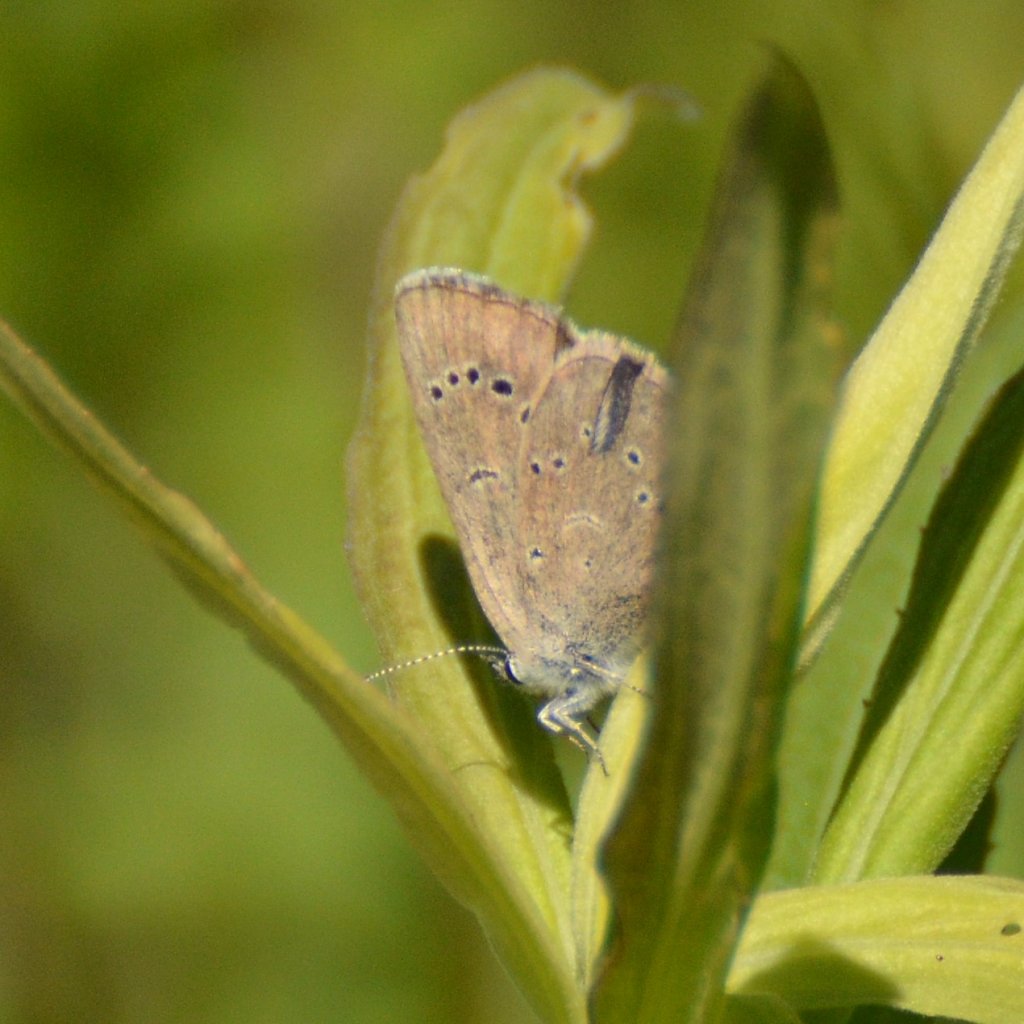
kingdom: Animalia
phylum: Arthropoda
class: Insecta
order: Lepidoptera
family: Lycaenidae
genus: Glaucopsyche
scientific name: Glaucopsyche lygdamus
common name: Silvery Blue
